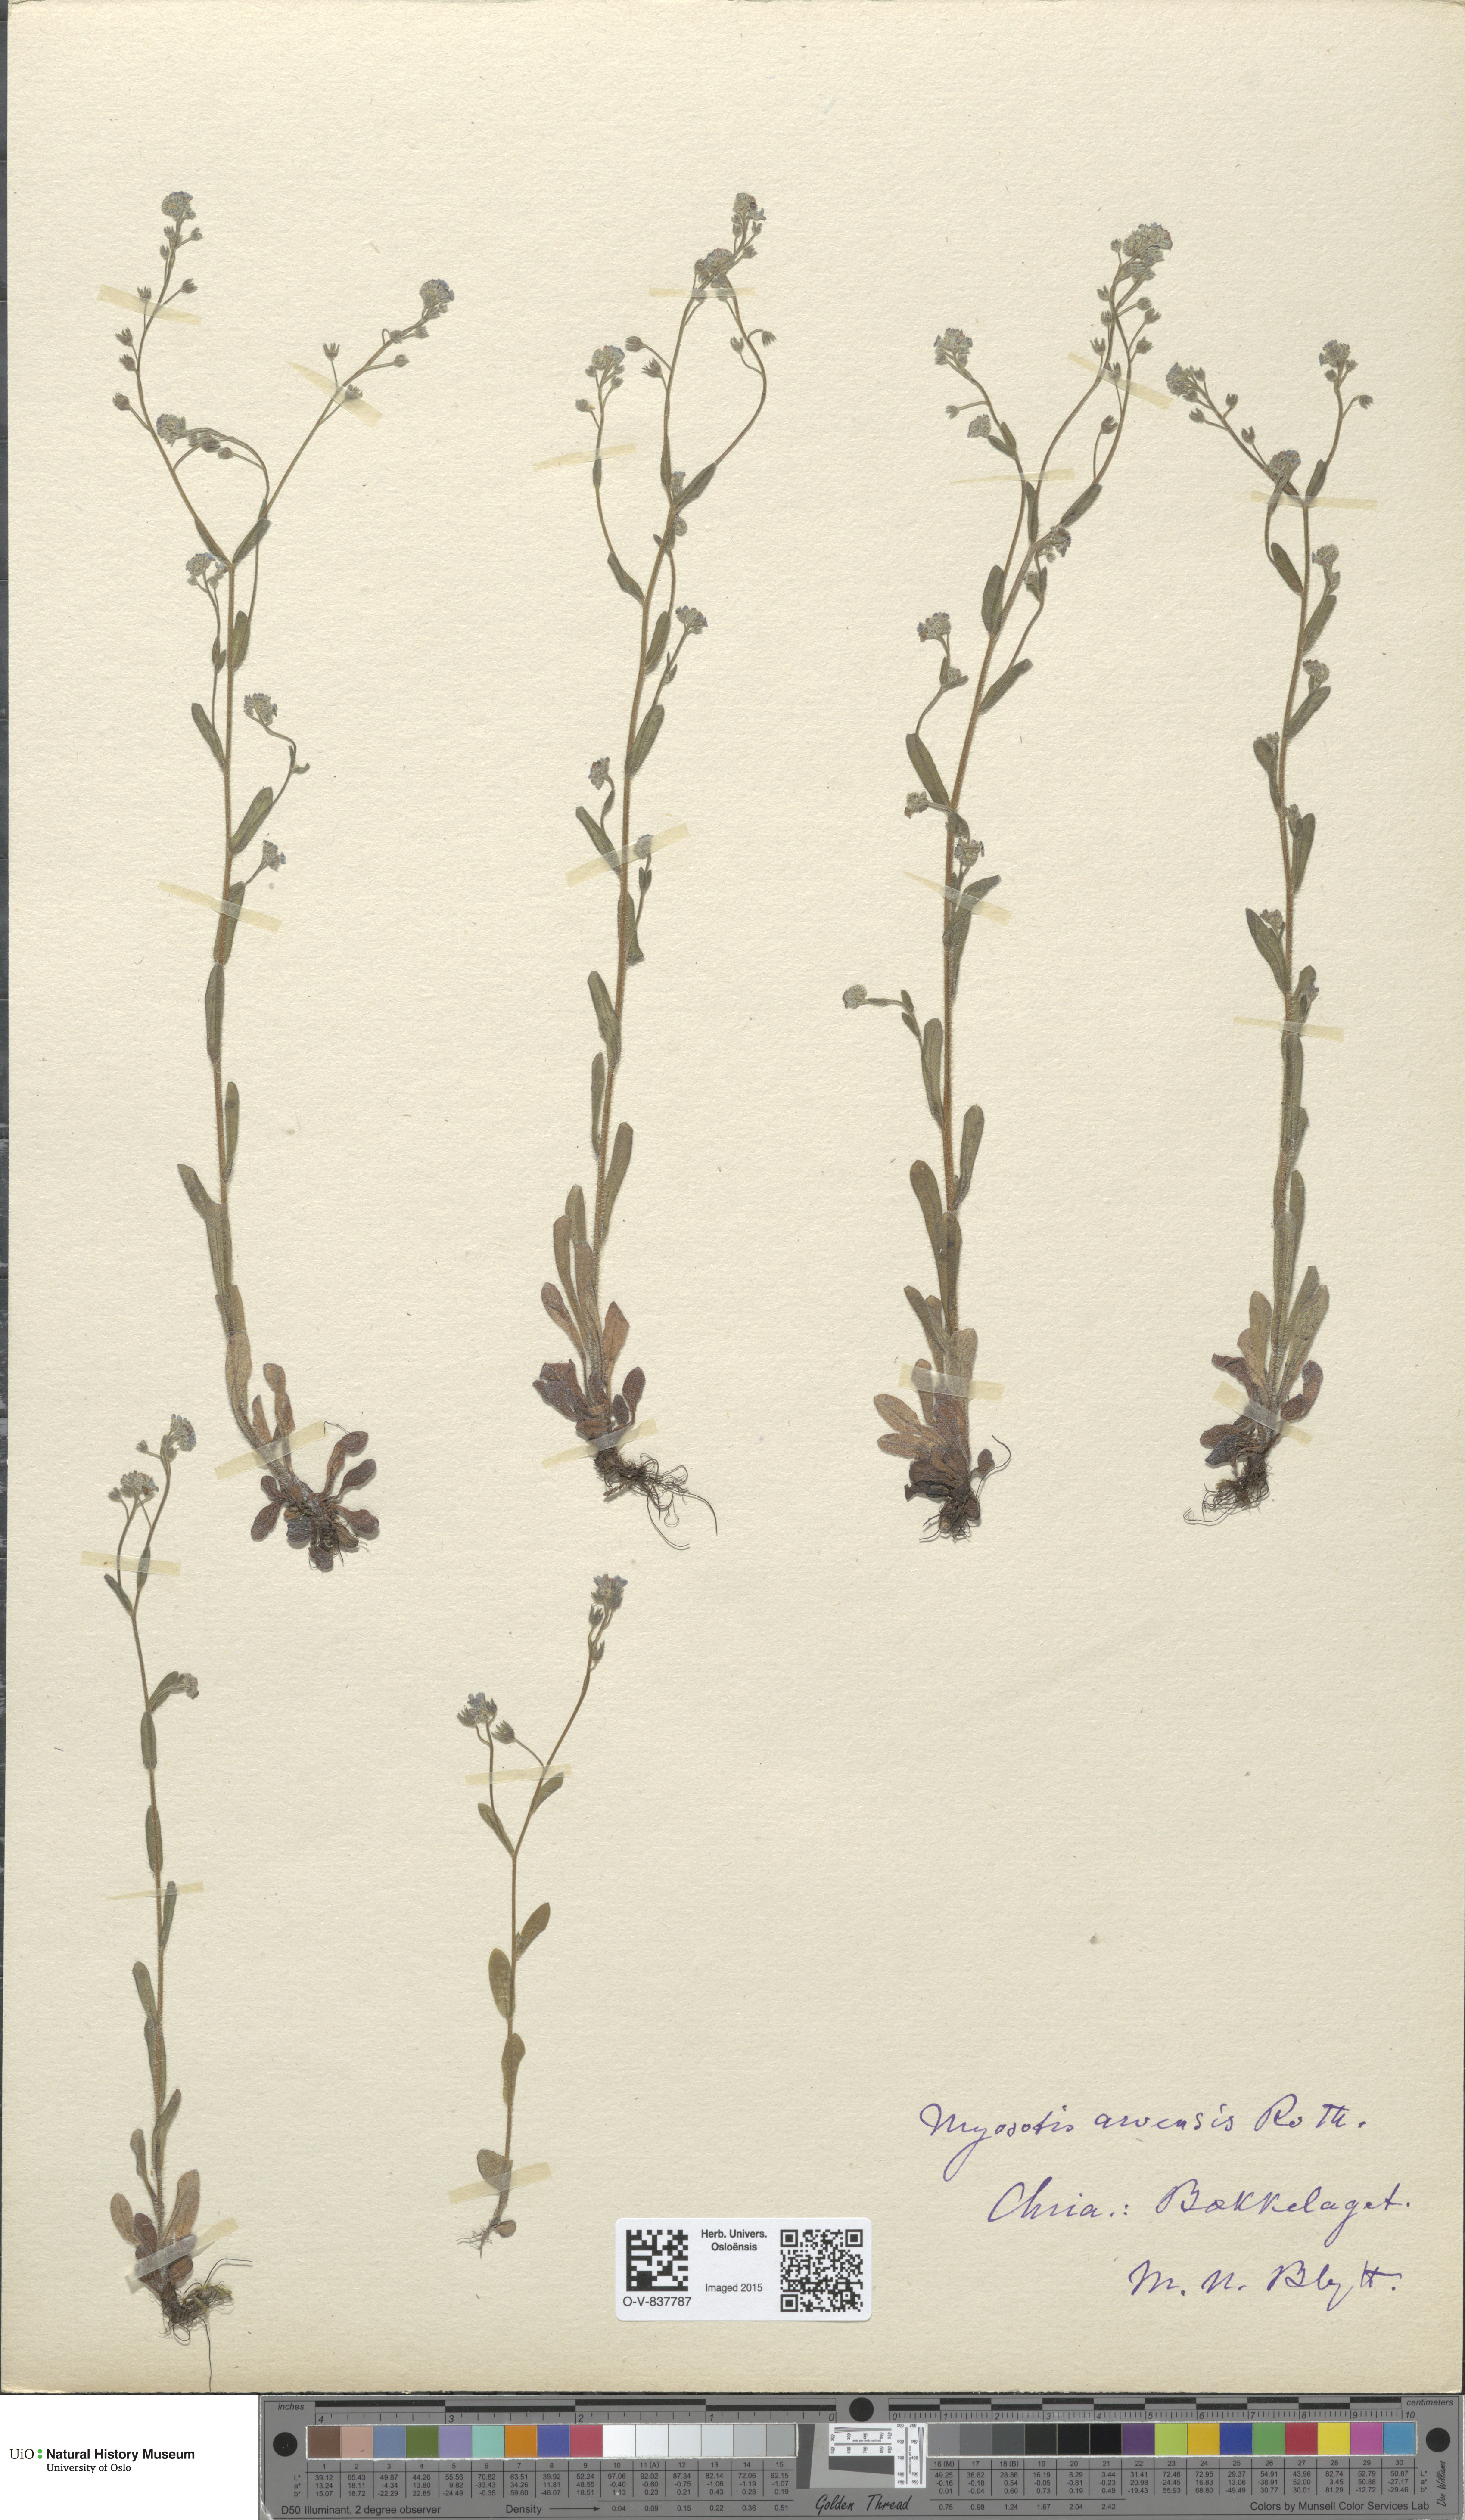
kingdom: Plantae
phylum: Tracheophyta
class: Magnoliopsida
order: Boraginales
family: Boraginaceae
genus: Myosotis
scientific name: Myosotis arvensis
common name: Field forget-me-not
